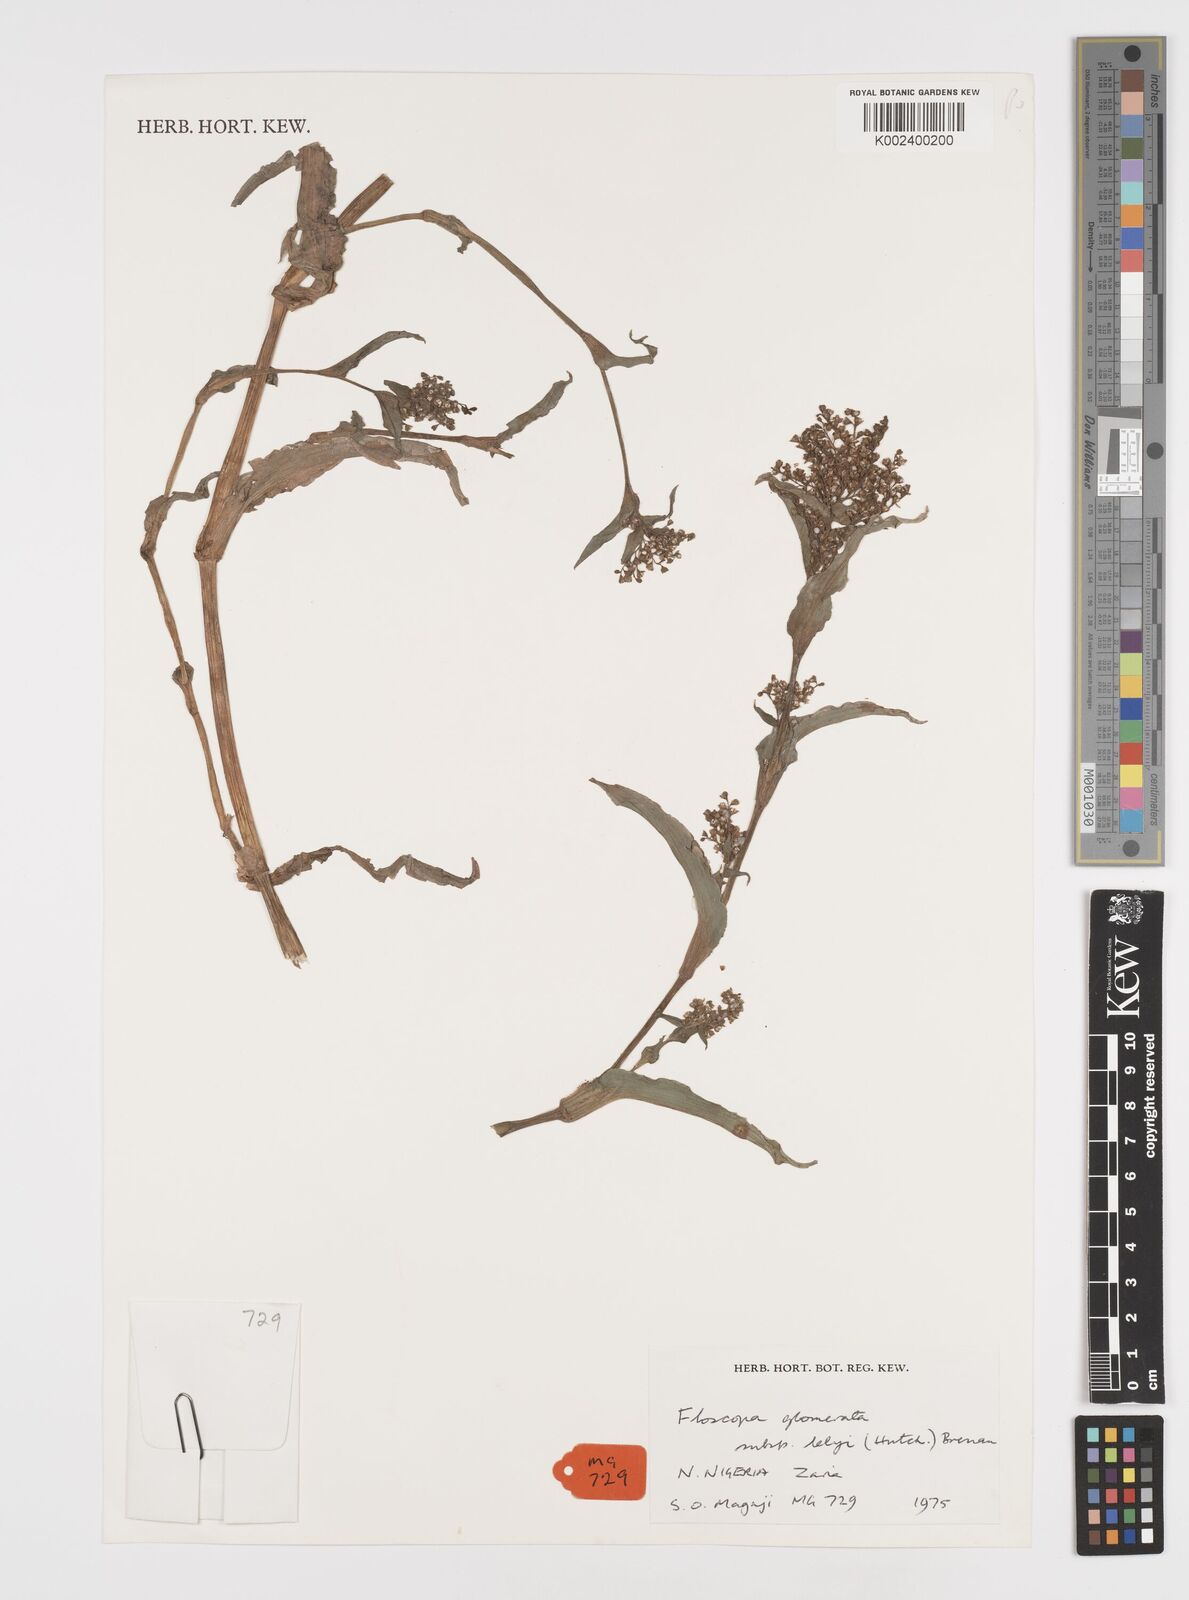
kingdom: Plantae
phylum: Tracheophyta
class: Liliopsida
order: Commelinales
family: Commelinaceae
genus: Floscopa
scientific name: Floscopa glomerata
